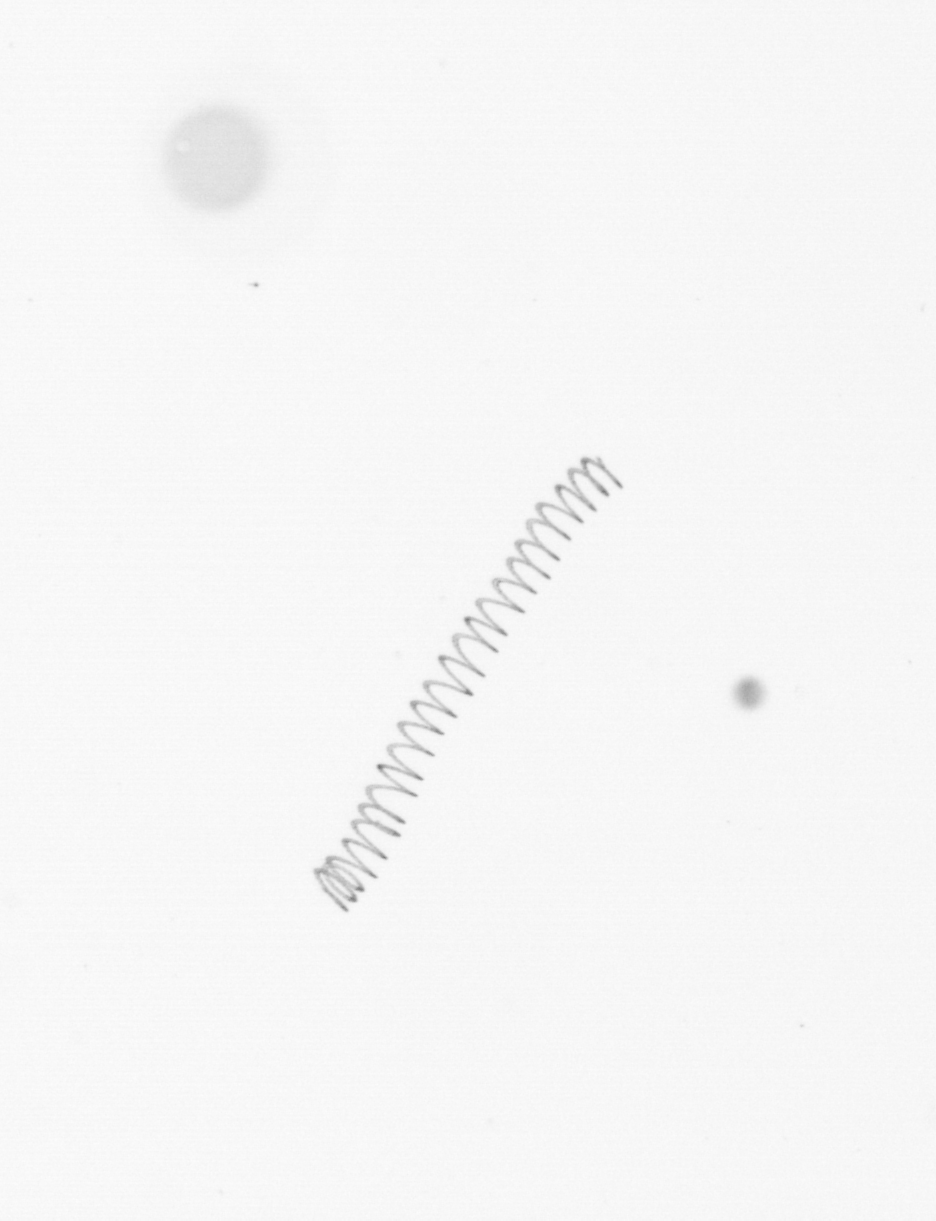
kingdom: Chromista
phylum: Ochrophyta
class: Bacillariophyceae
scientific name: Bacillariophyceae
